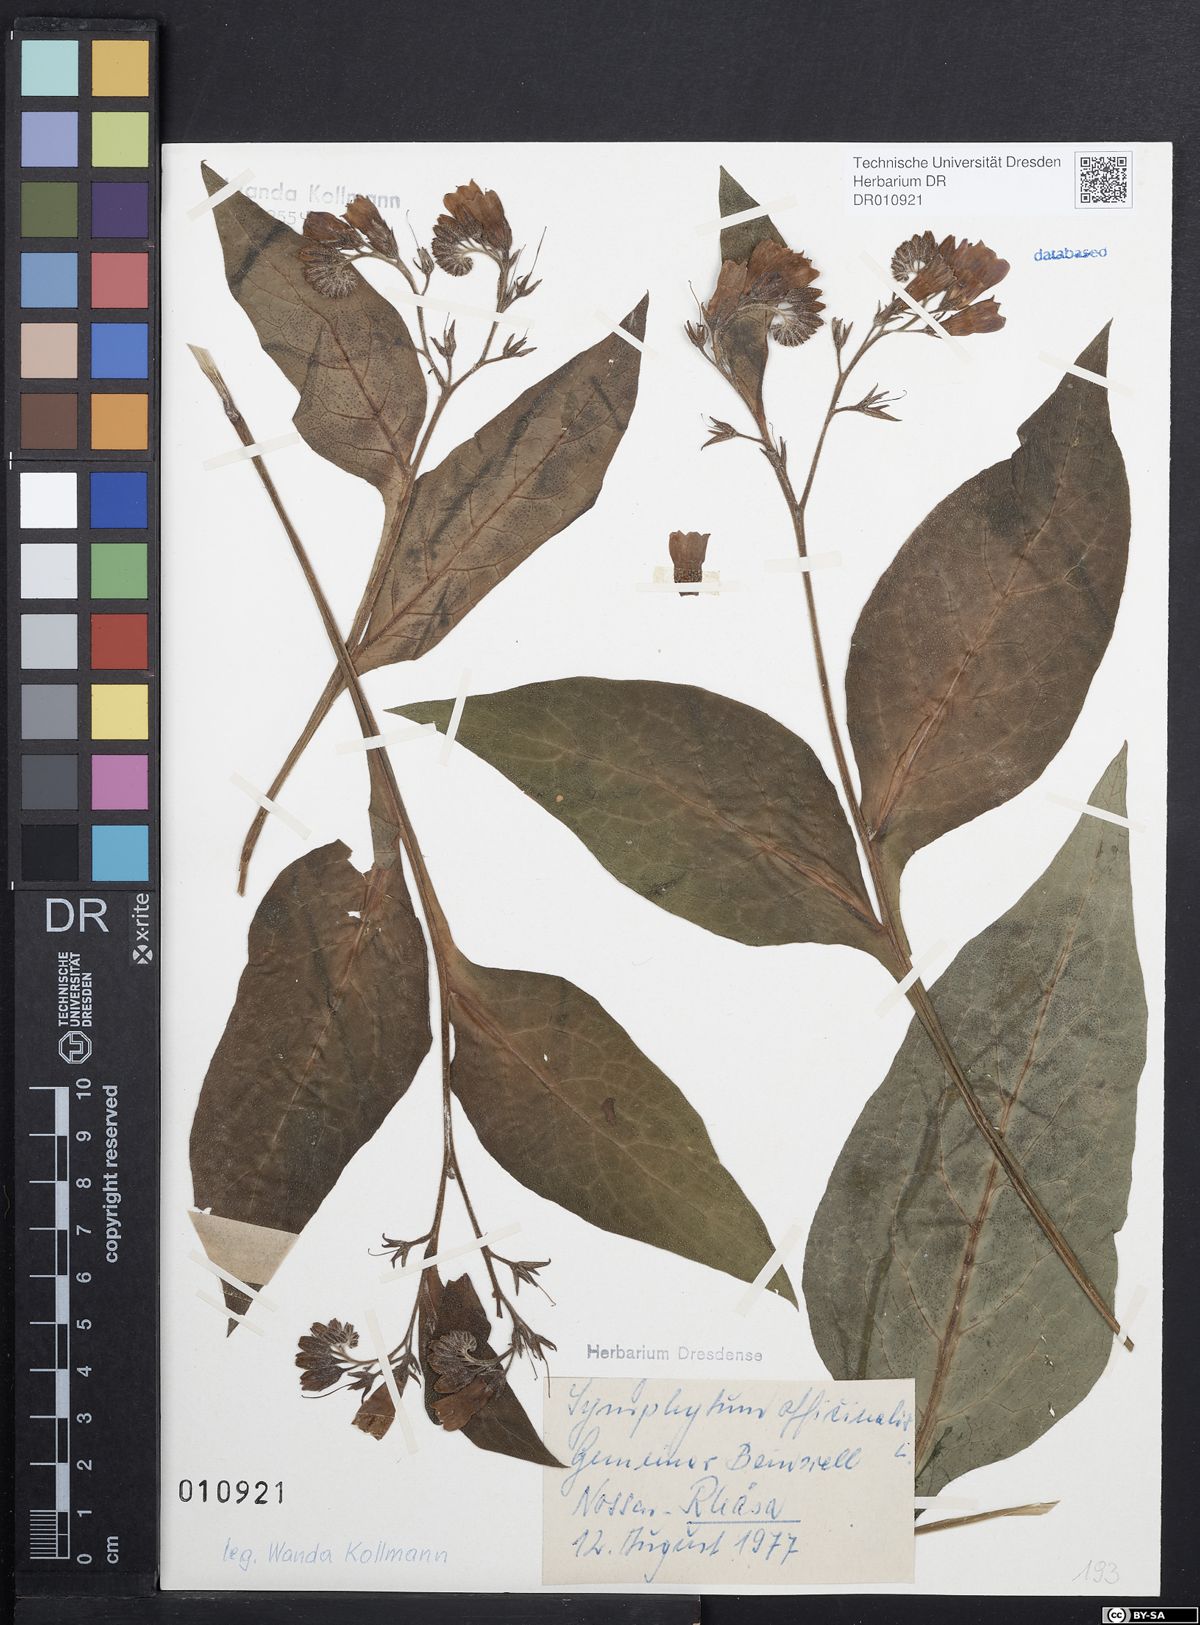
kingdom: Plantae
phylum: Tracheophyta
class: Magnoliopsida
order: Boraginales
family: Boraginaceae
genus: Symphytum
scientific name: Symphytum officinale
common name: Common comfrey
